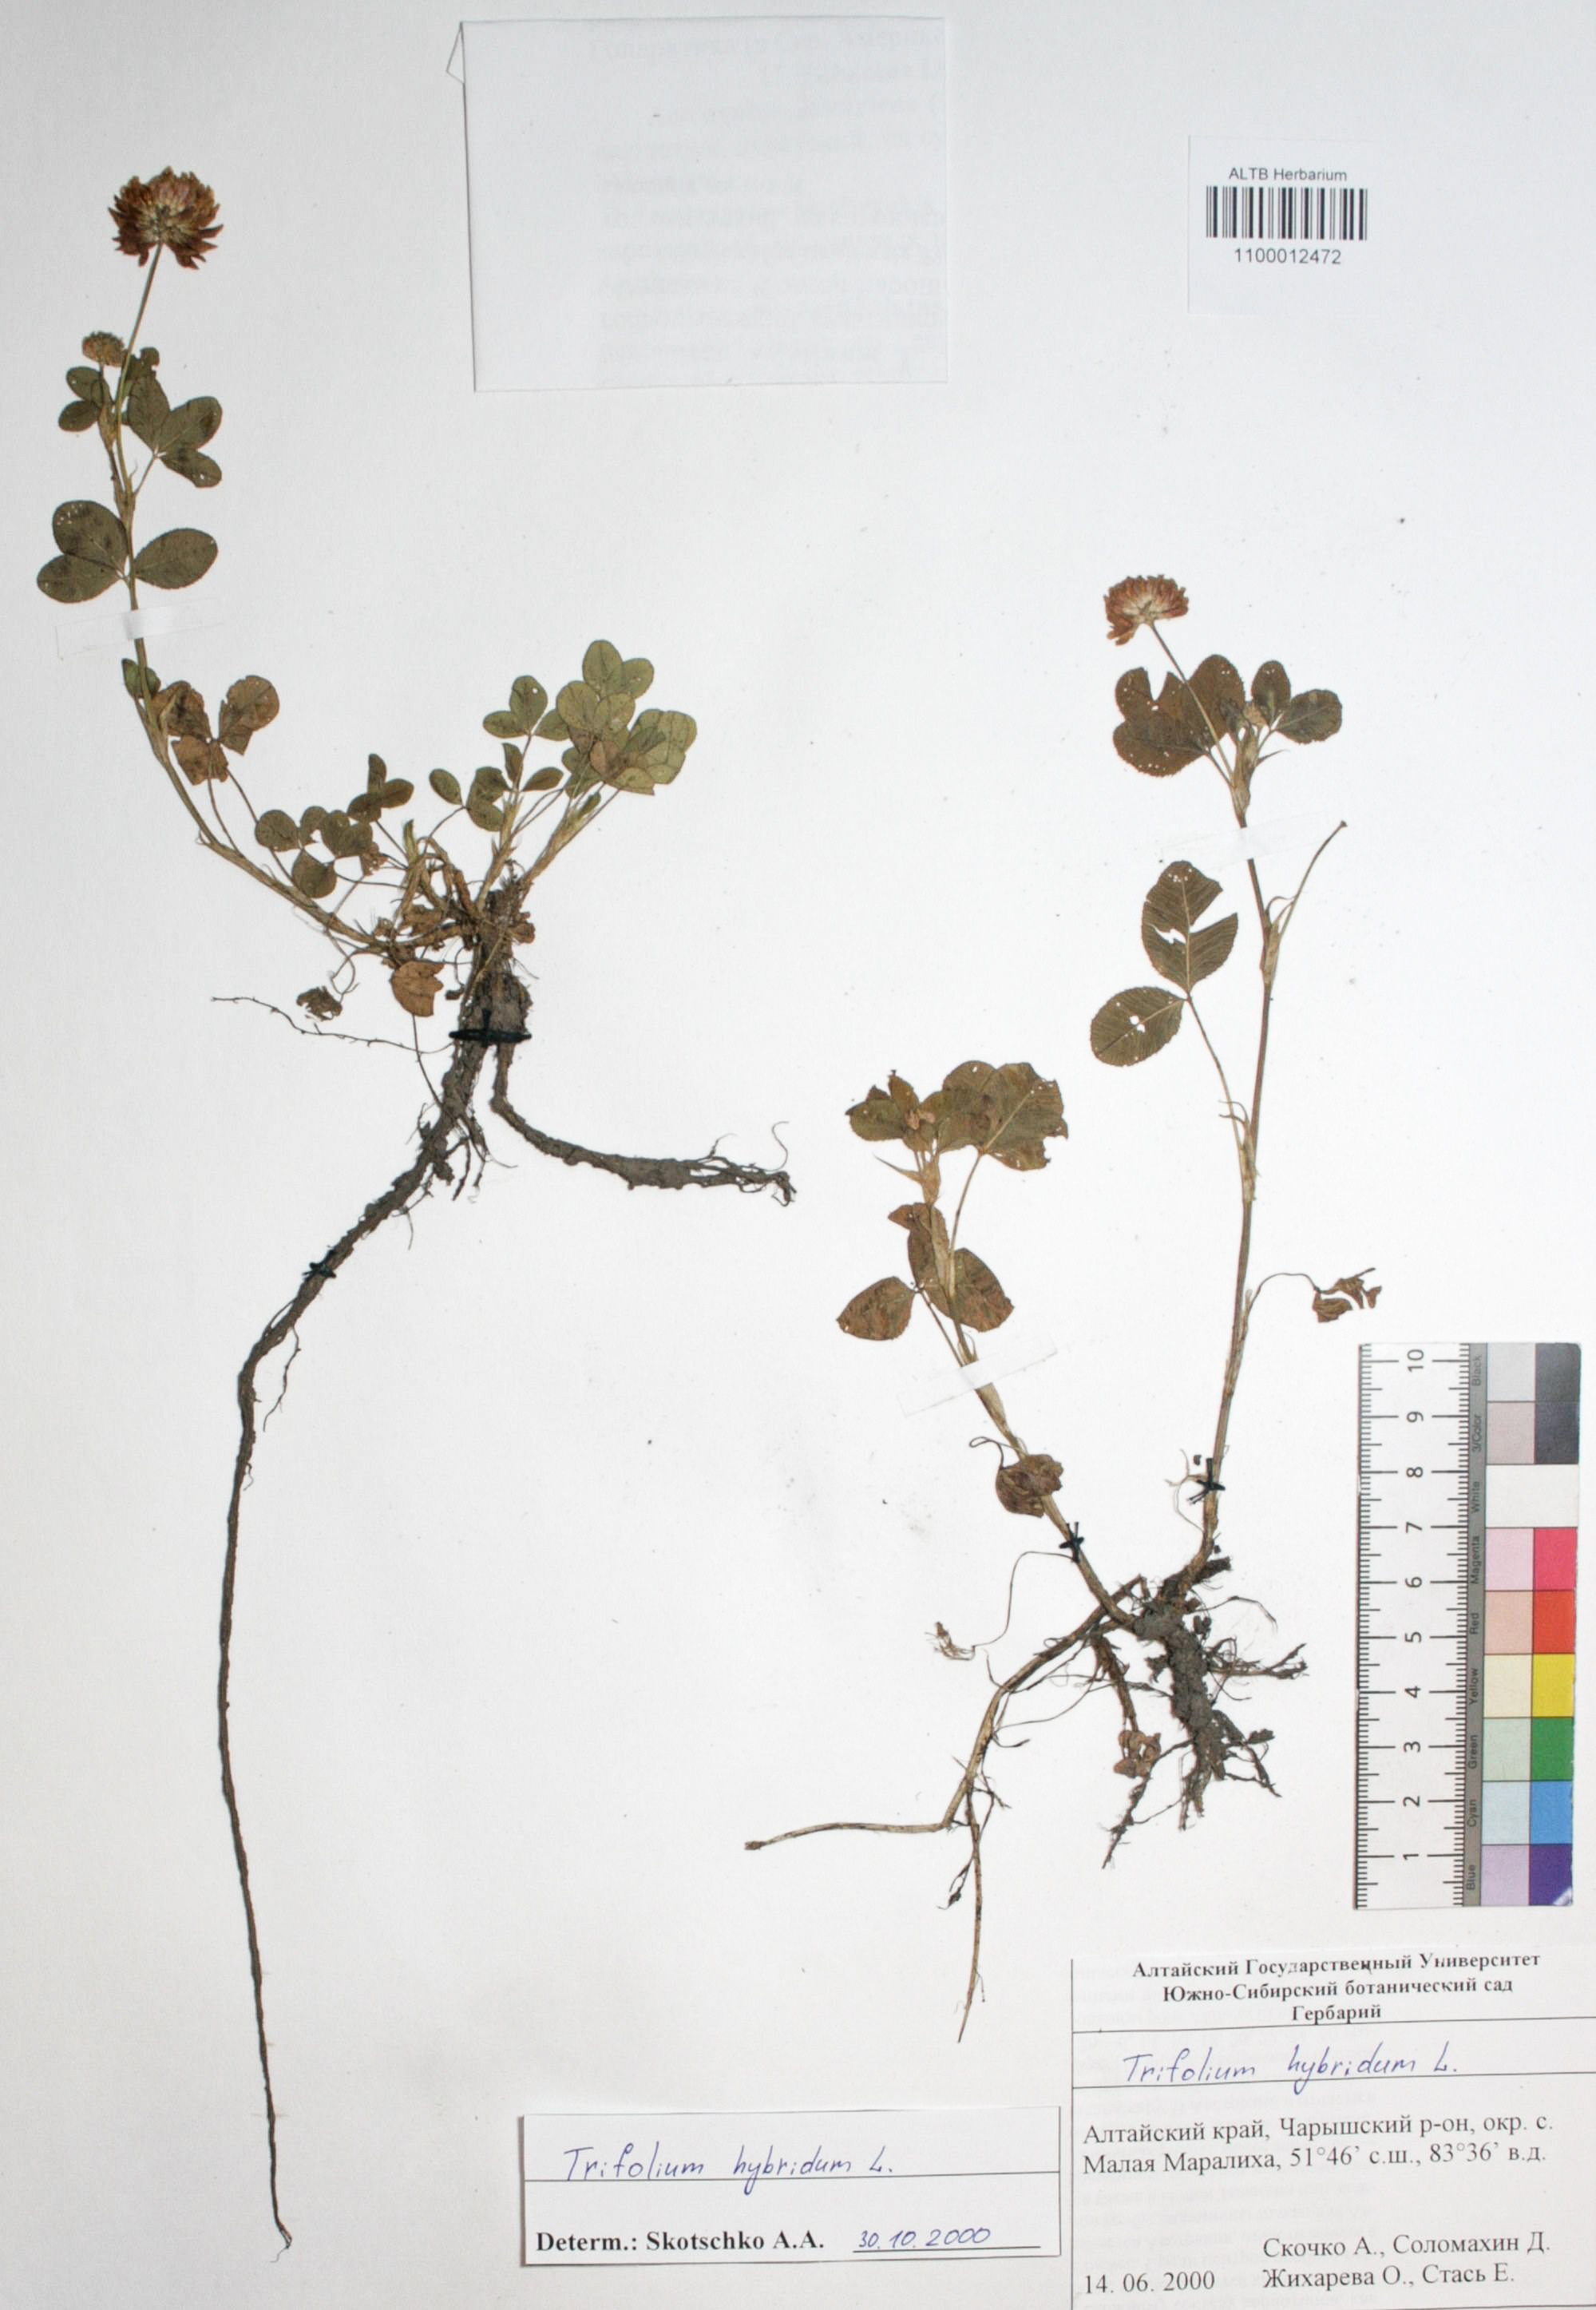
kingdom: Plantae
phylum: Tracheophyta
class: Magnoliopsida
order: Fabales
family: Fabaceae
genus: Trifolium
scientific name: Trifolium hybridum
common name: Alsike clover
